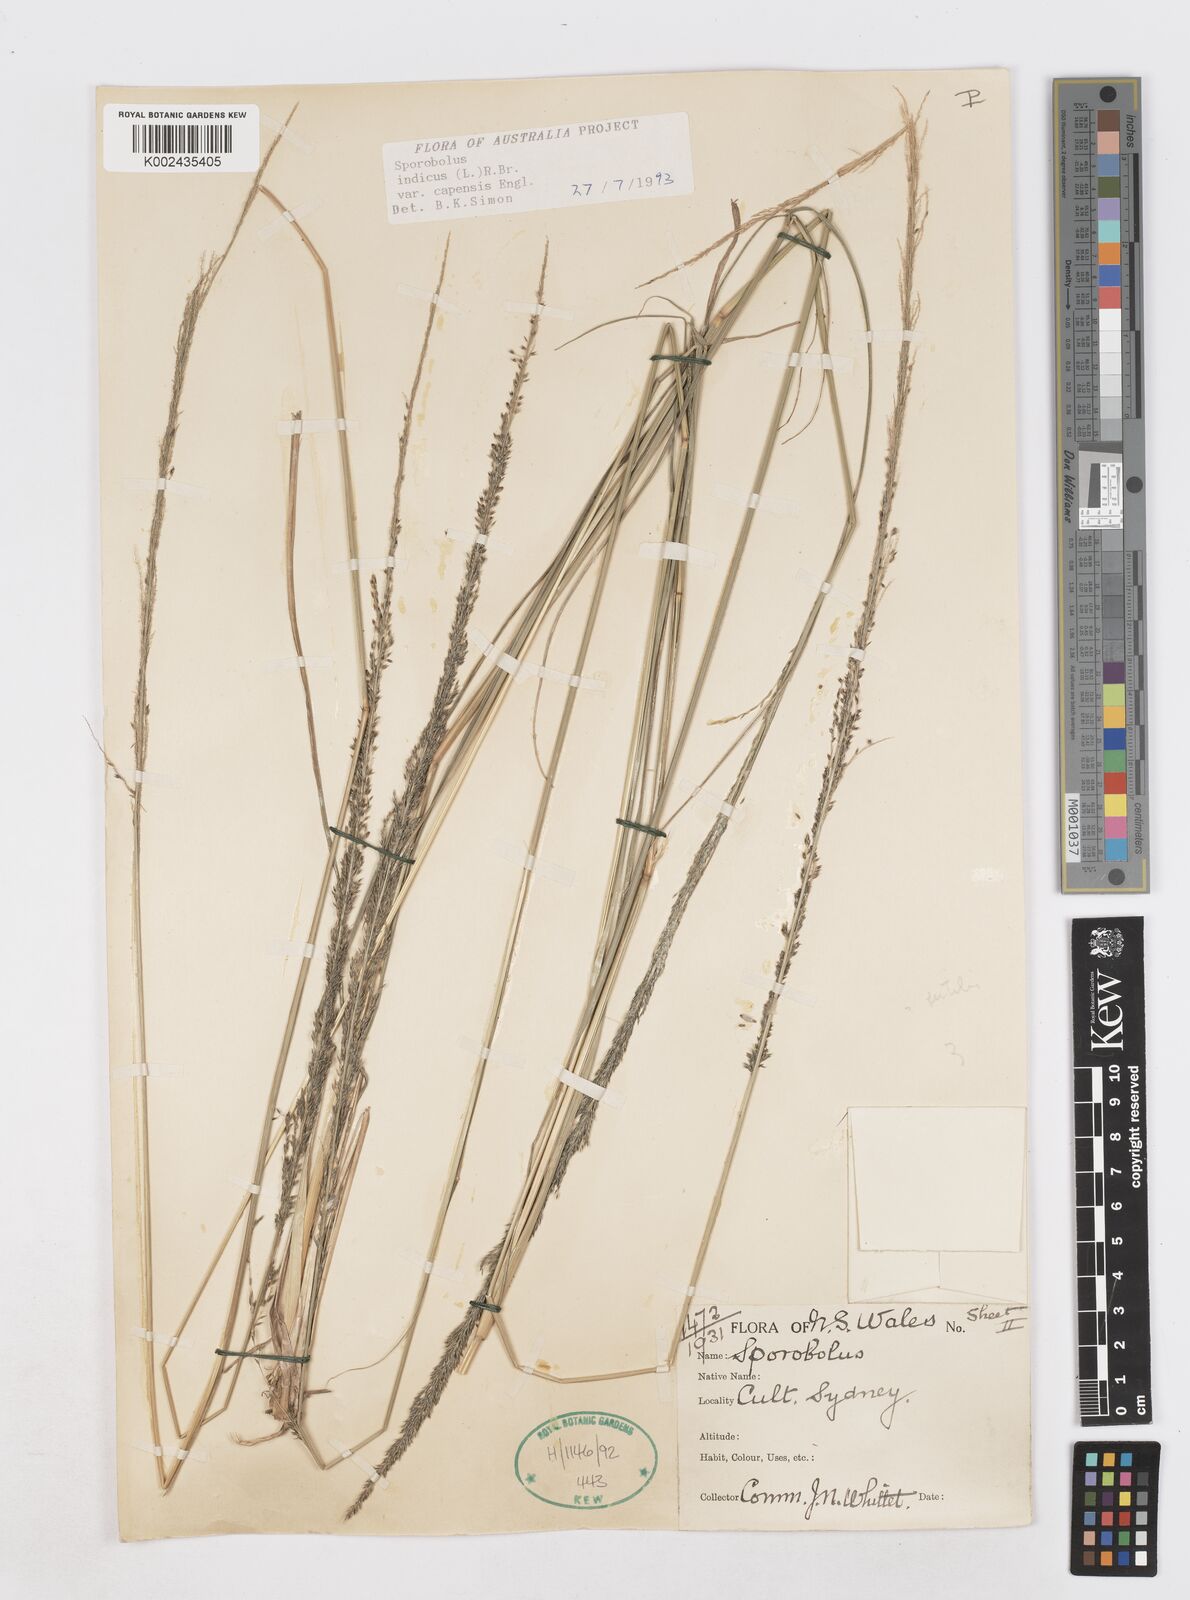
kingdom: Plantae
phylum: Tracheophyta
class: Liliopsida
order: Poales
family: Poaceae
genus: Sporobolus
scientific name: Sporobolus africanus
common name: African dropseed
